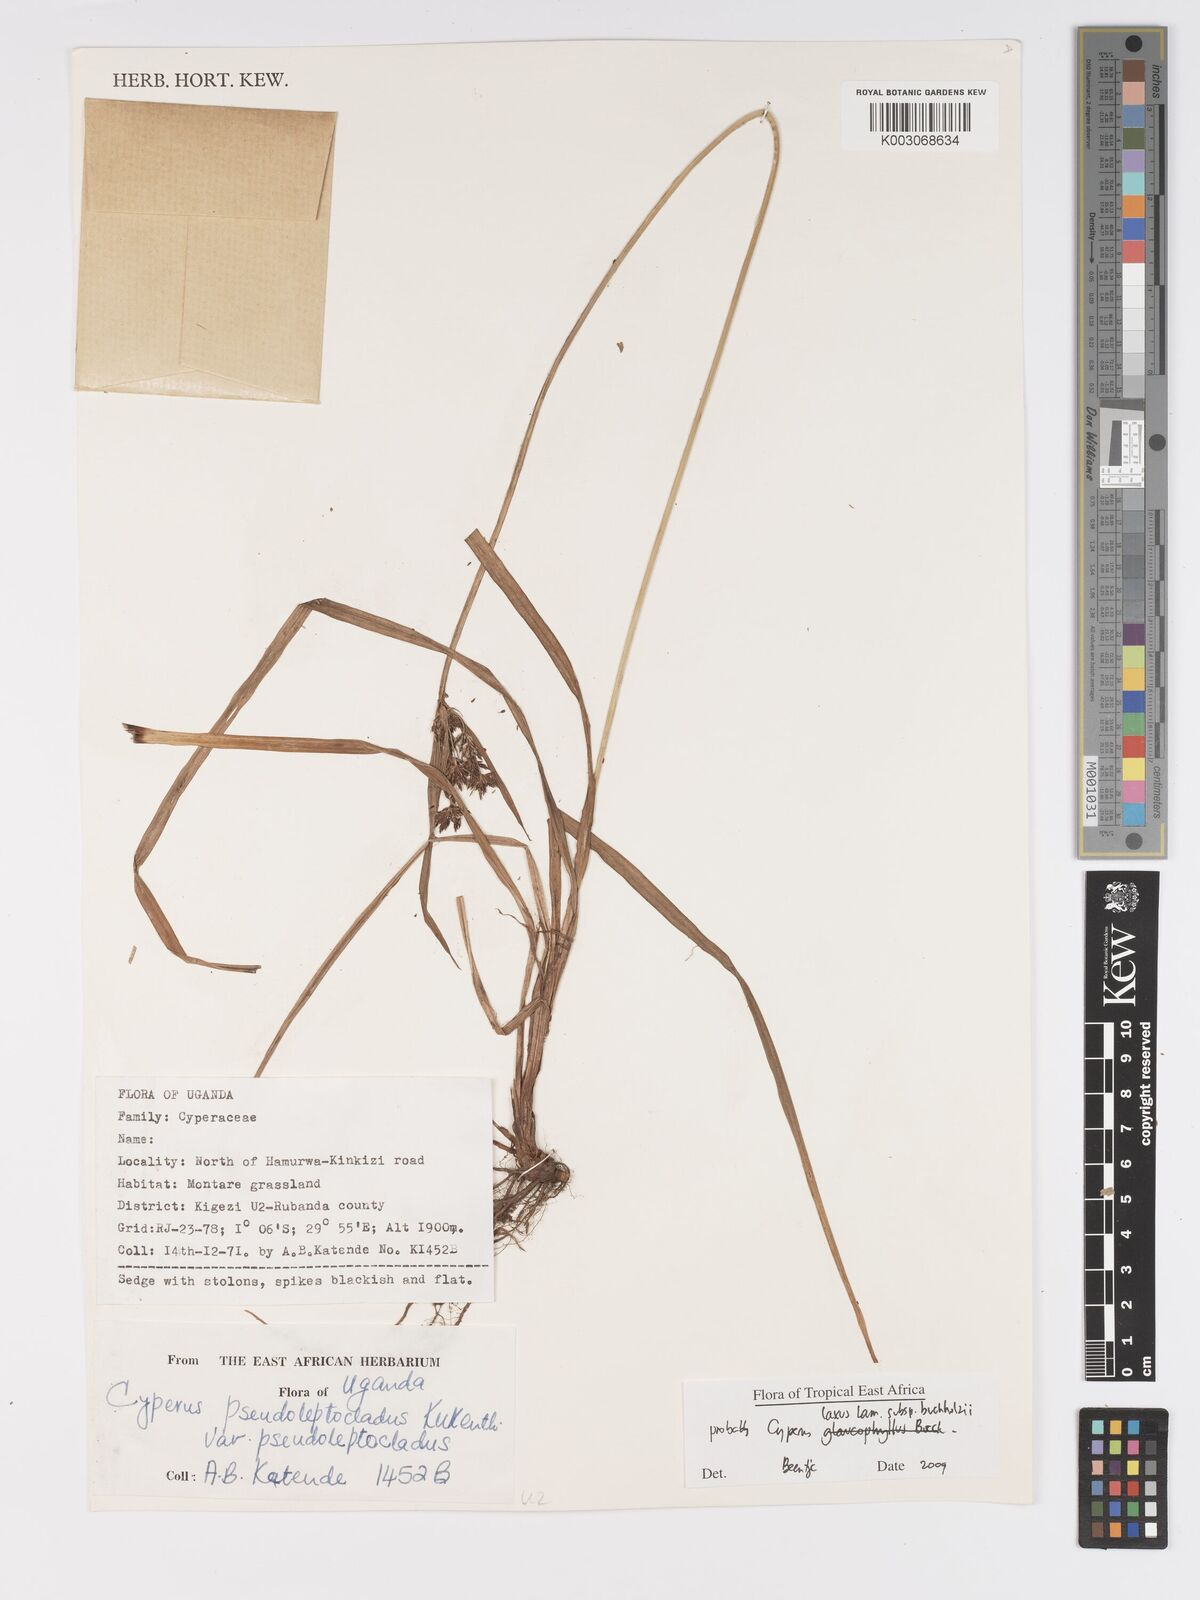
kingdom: Plantae
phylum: Tracheophyta
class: Liliopsida
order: Poales
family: Cyperaceae
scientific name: Cyperaceae
